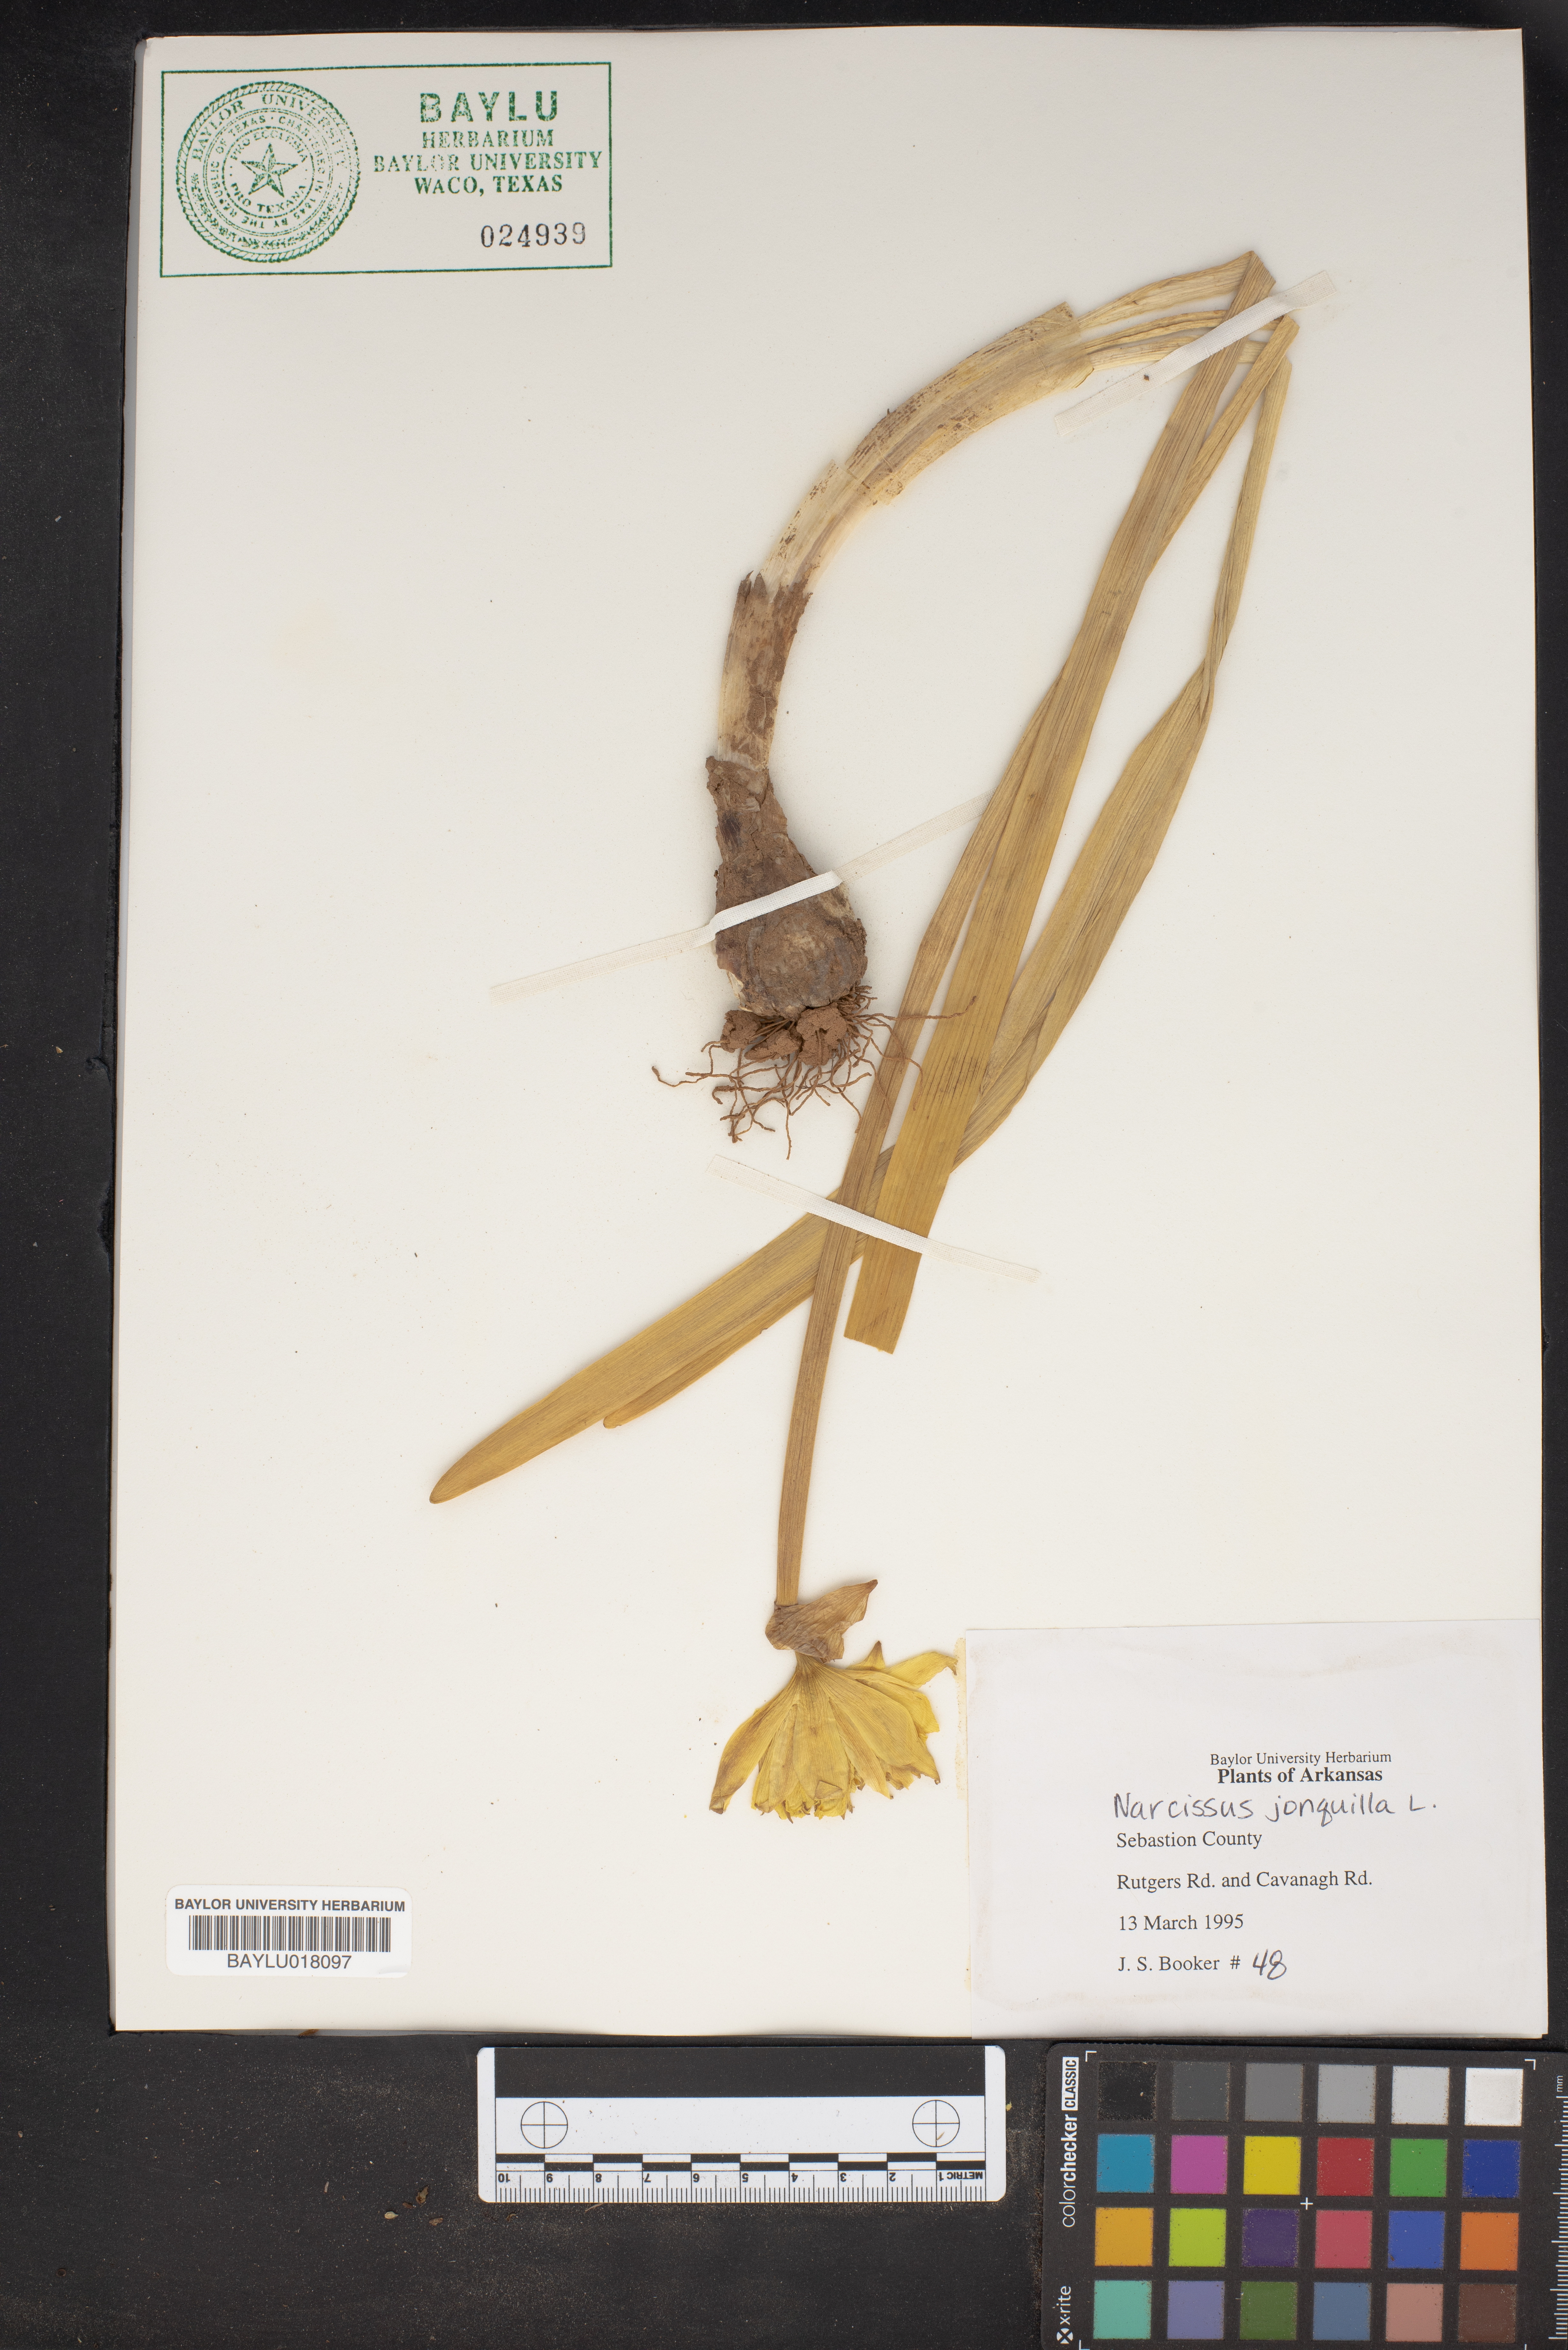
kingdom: Plantae
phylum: Tracheophyta
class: Liliopsida
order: Asparagales
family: Amaryllidaceae
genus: Narcissus
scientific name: Narcissus jonquilla
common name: Jonquil
